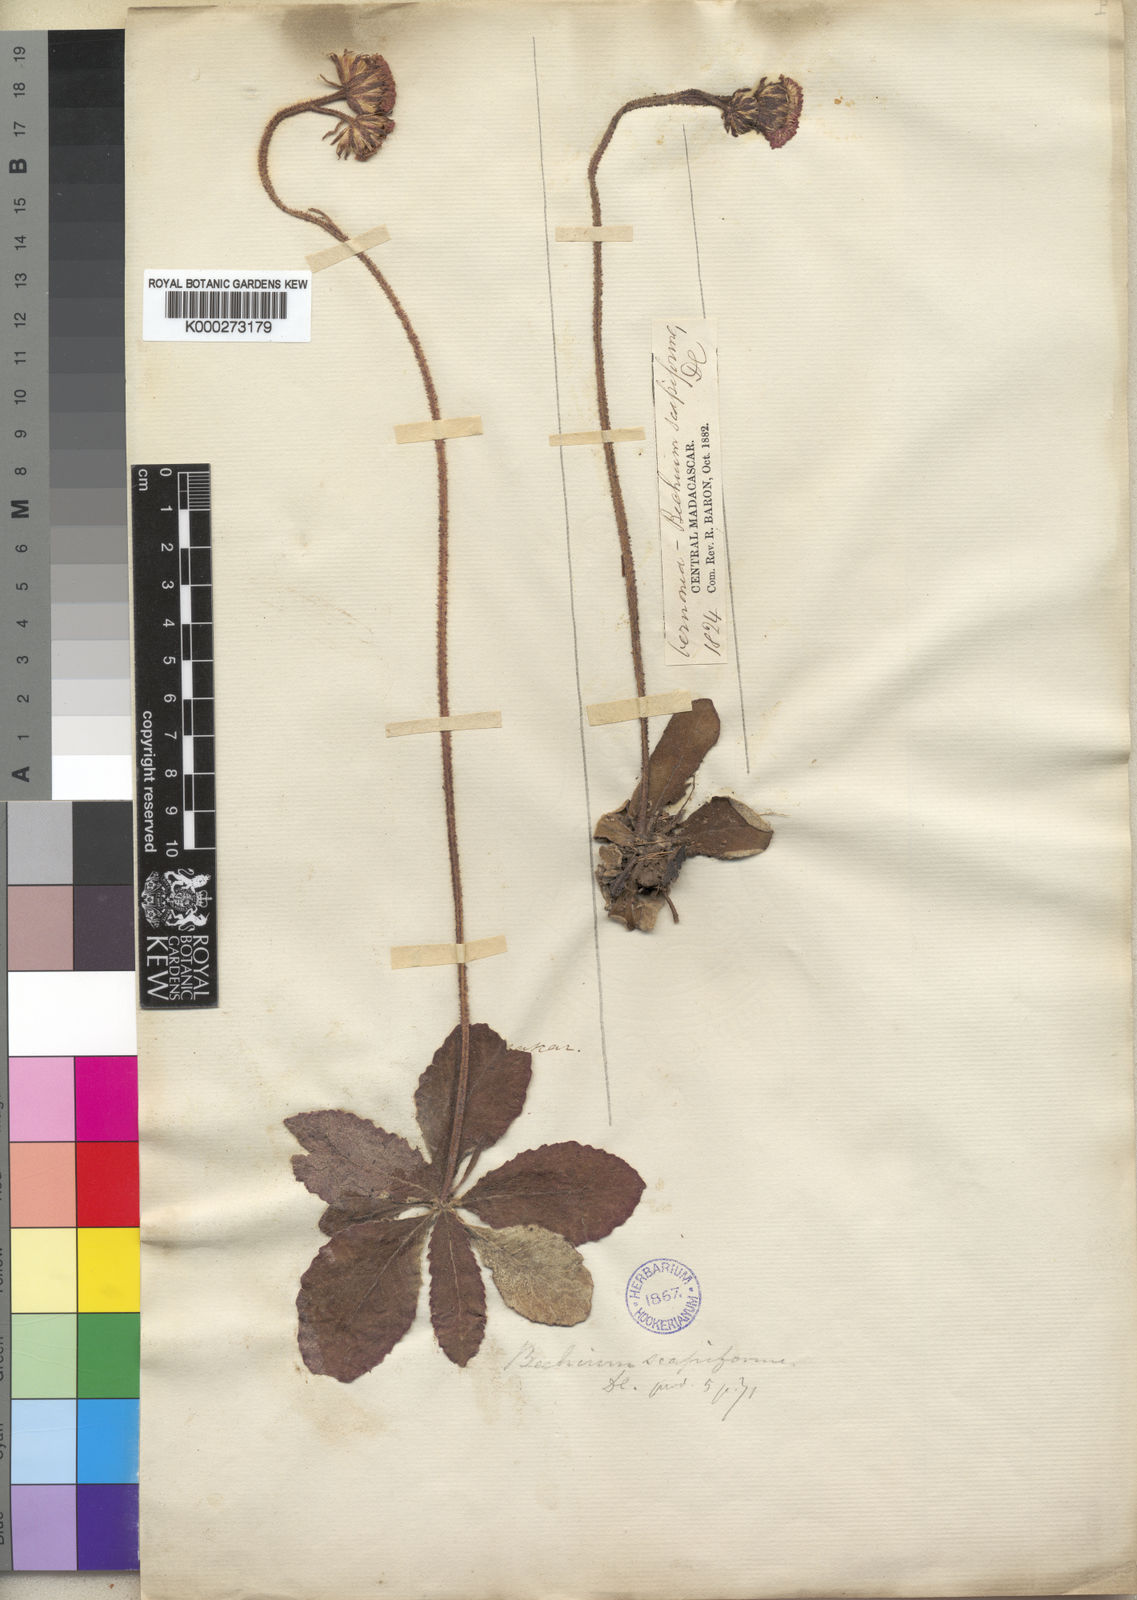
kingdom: Plantae
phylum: Tracheophyta
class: Magnoliopsida
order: Asterales
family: Asteraceae
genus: Bechium
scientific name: Bechium nudicaule
